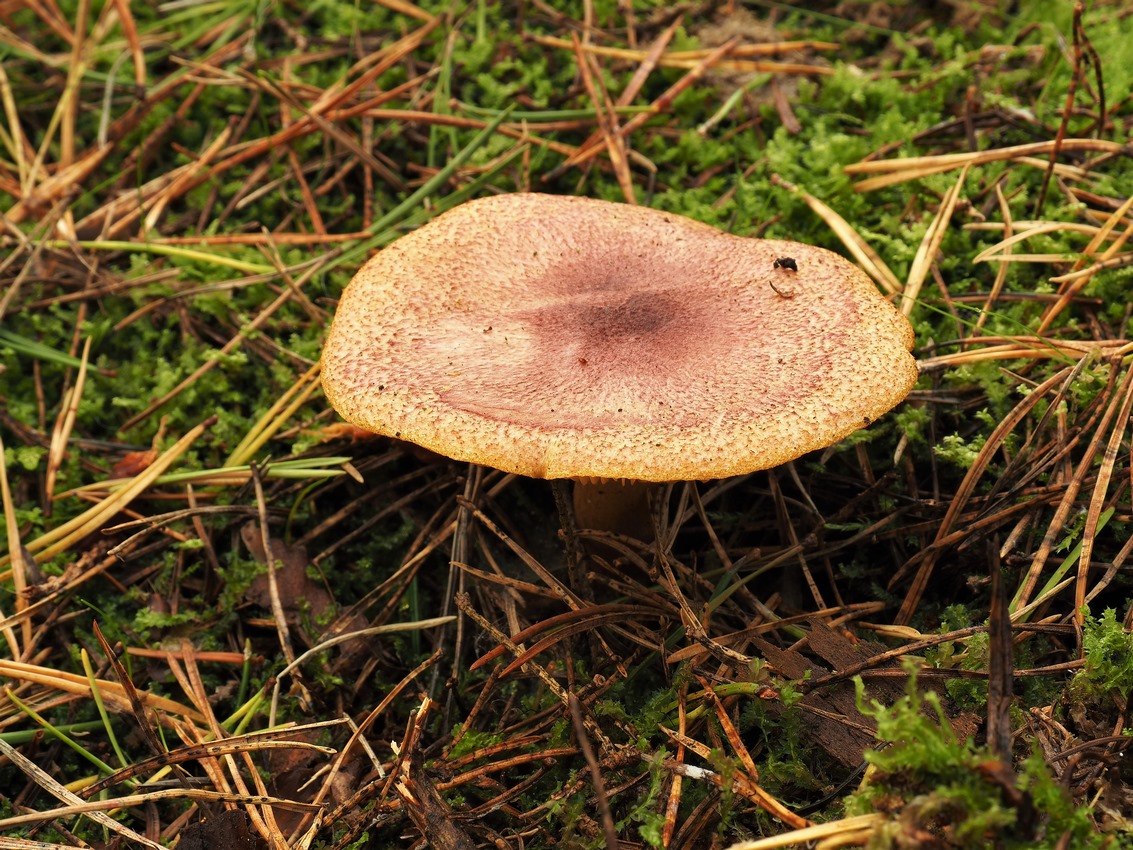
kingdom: Fungi
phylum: Basidiomycota
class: Agaricomycetes
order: Agaricales
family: Tricholomataceae
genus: Tricholomopsis
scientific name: Tricholomopsis rutilans
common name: purpur-væbnerhat
